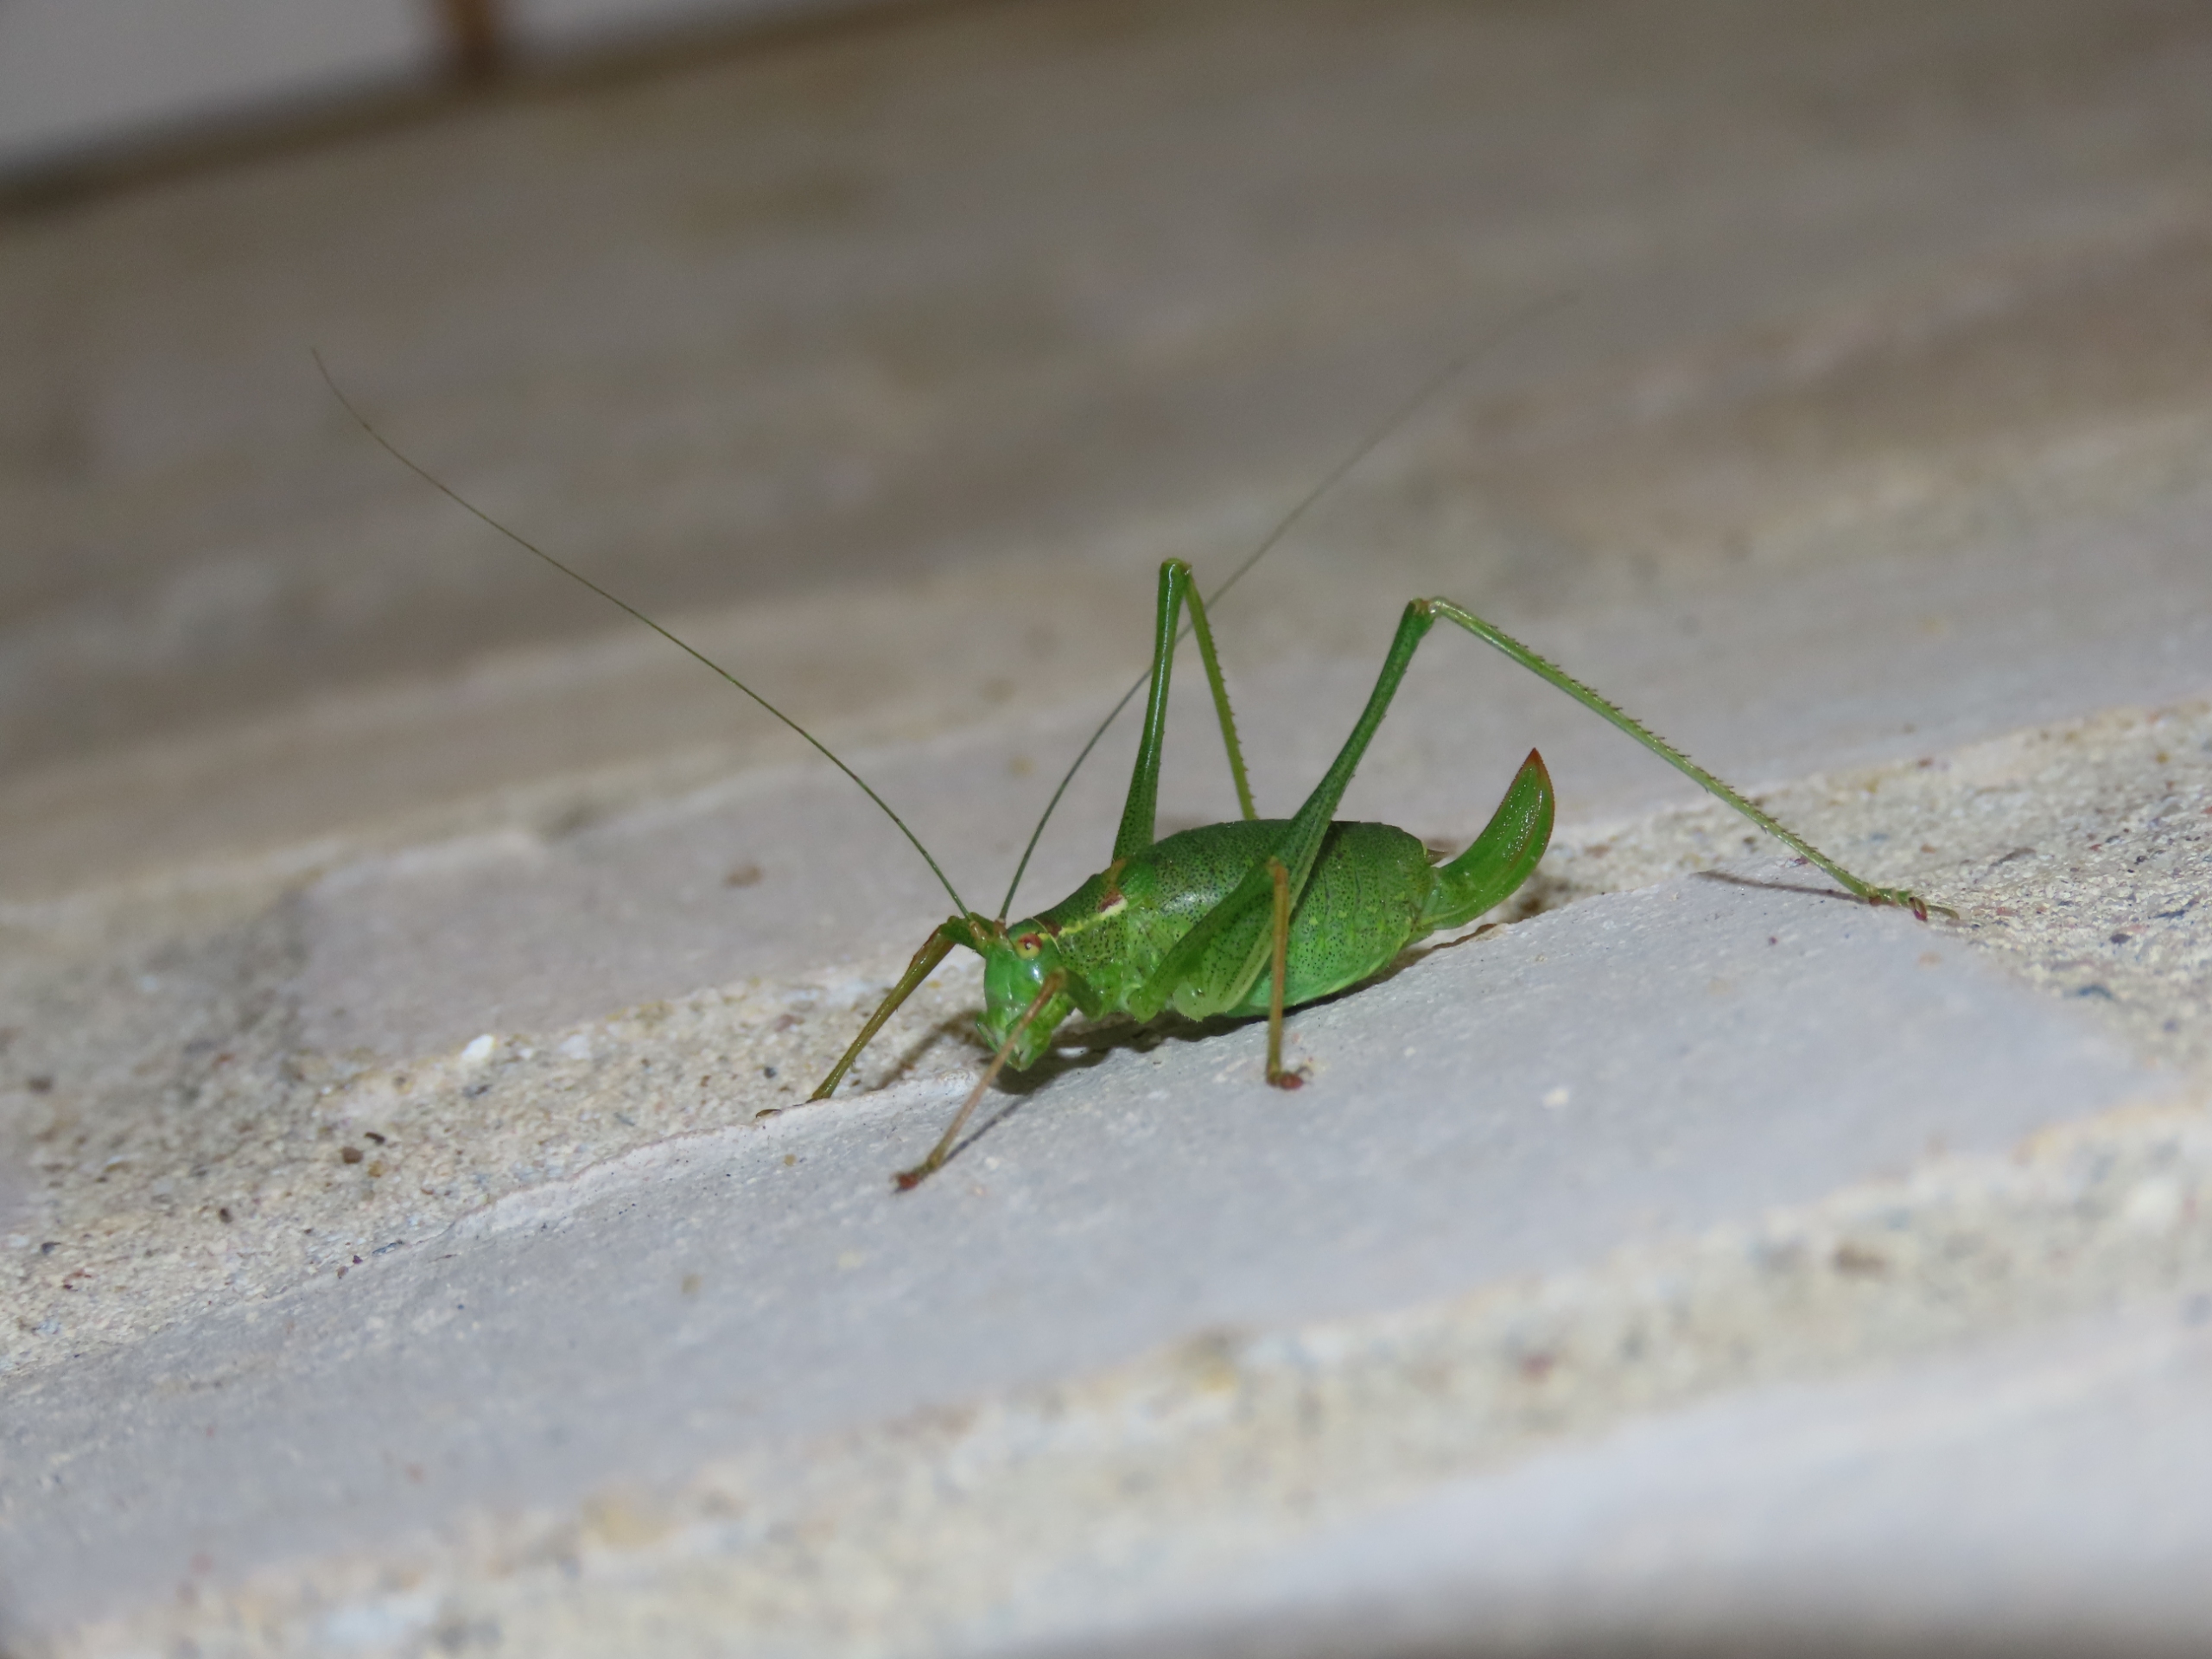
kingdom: Animalia
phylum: Arthropoda
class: Insecta
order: Orthoptera
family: Tettigoniidae
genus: Leptophyes
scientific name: Leptophyes punctatissima
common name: Krumknivgræshoppe
